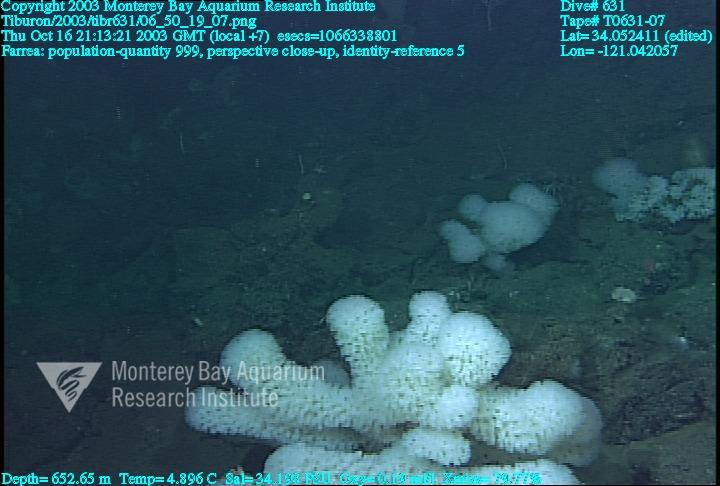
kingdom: Animalia
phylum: Porifera
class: Hexactinellida
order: Sceptrulophora
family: Farreidae
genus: Farrea
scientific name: Farrea
